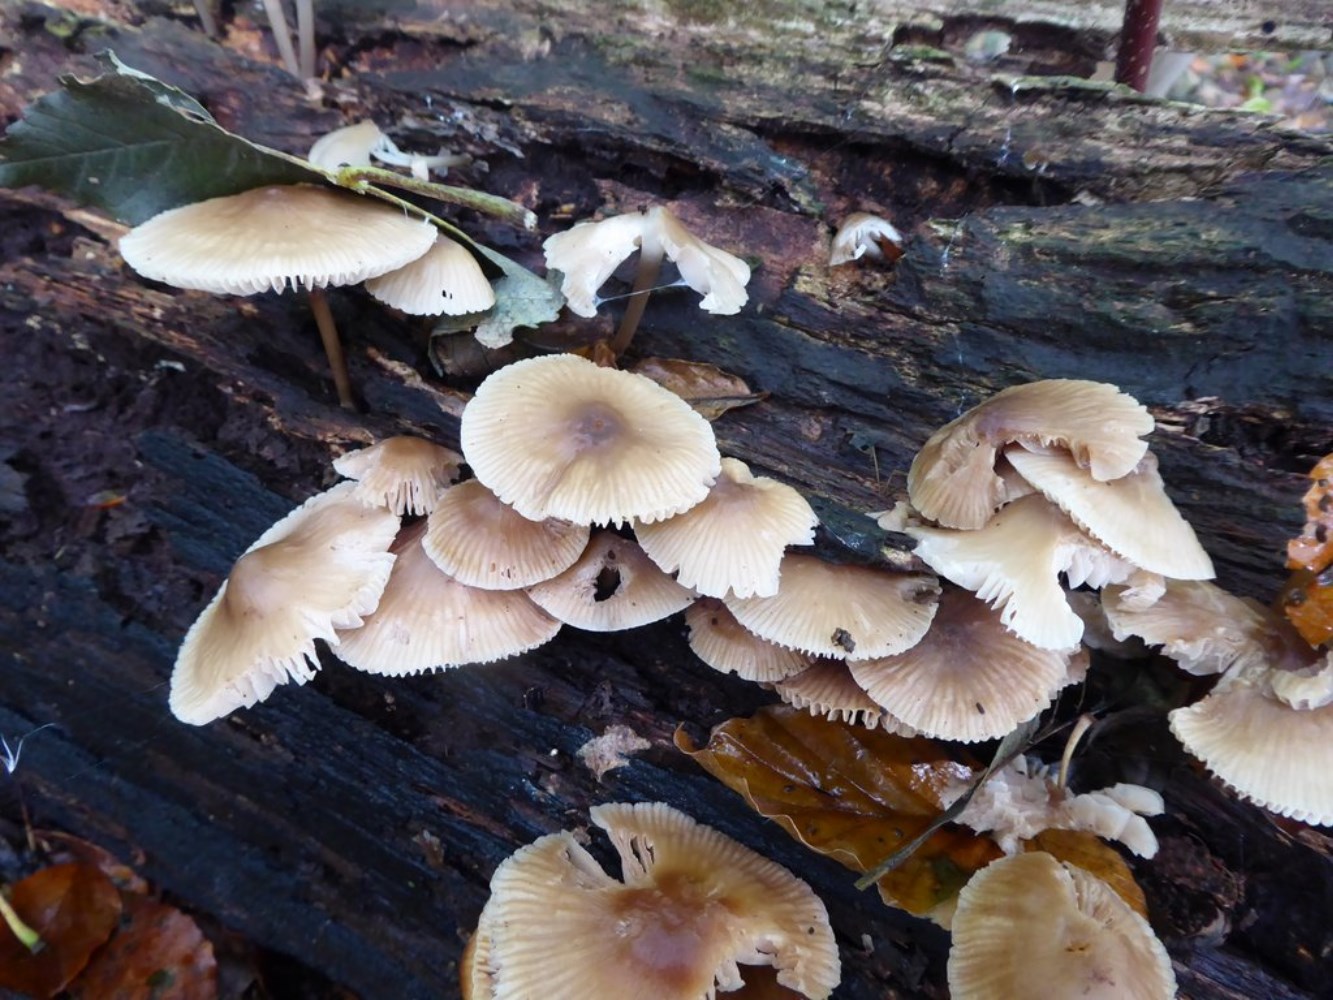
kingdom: Fungi
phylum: Basidiomycota
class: Agaricomycetes
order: Agaricales
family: Mycenaceae
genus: Mycena
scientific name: Mycena galericulata
